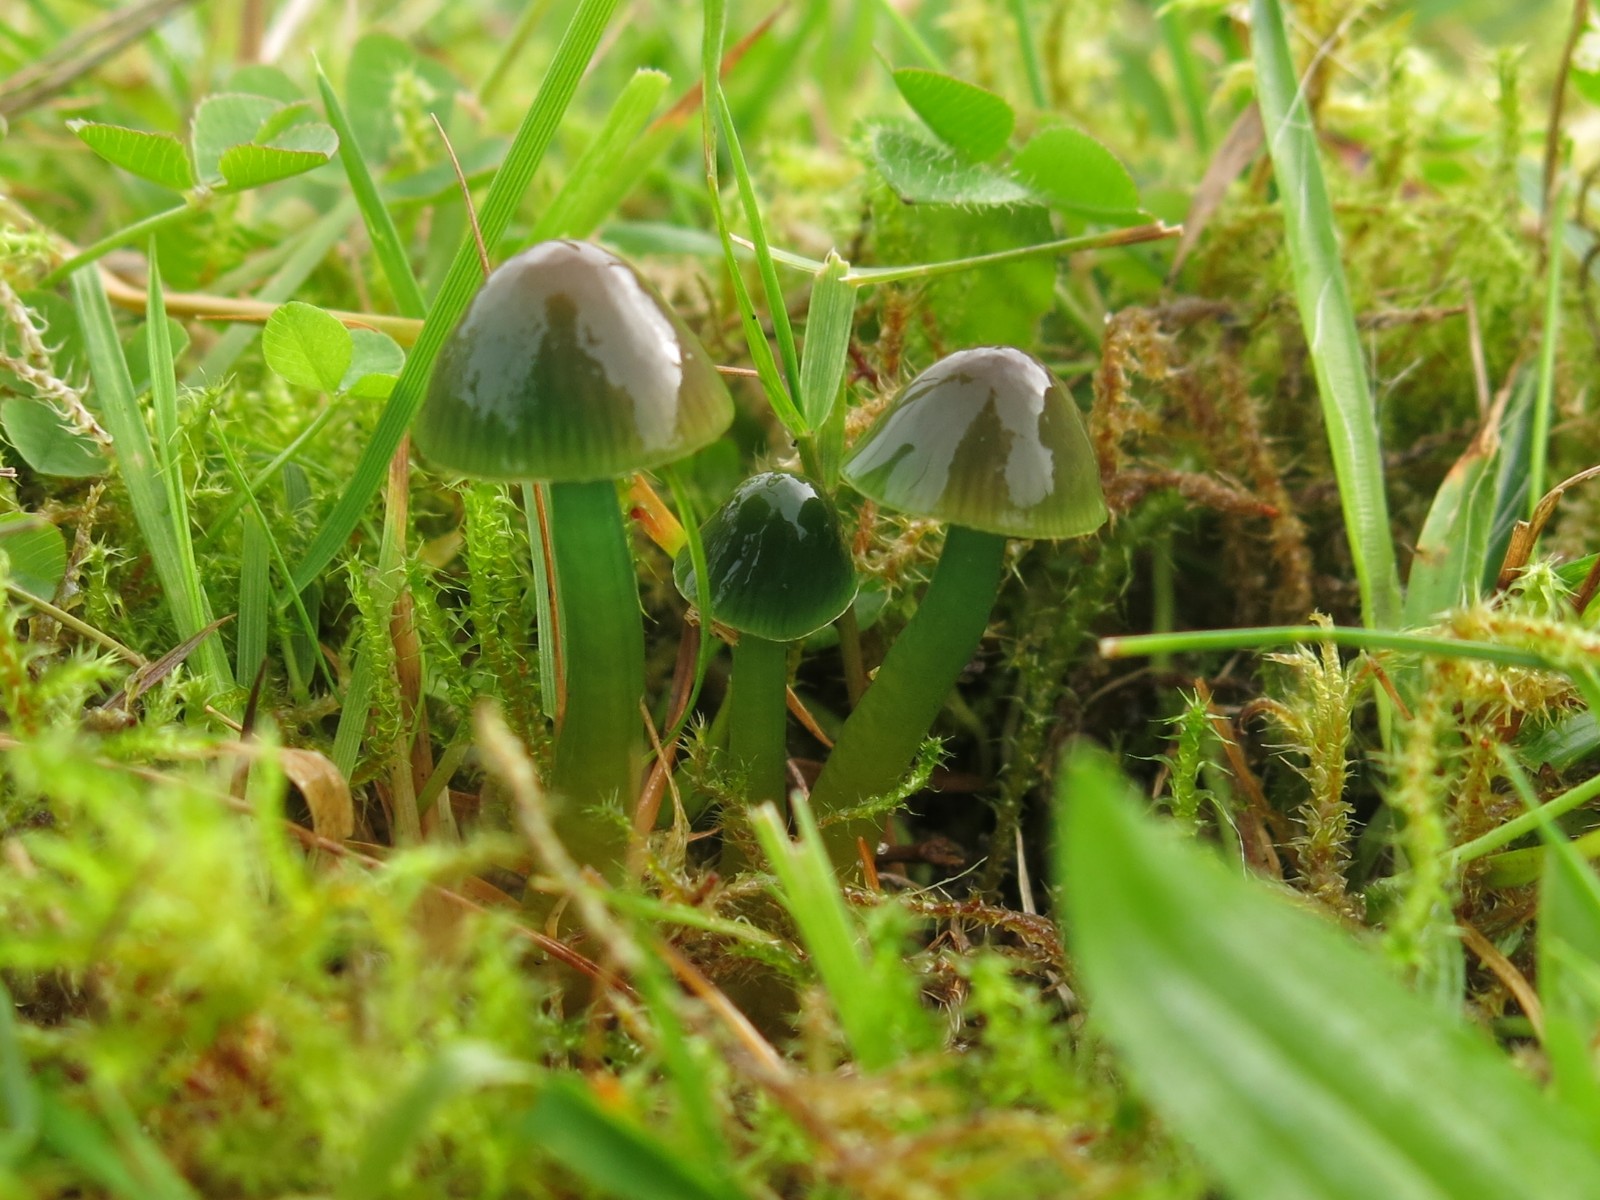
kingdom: Fungi
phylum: Basidiomycota
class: Agaricomycetes
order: Agaricales
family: Hygrophoraceae
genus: Gliophorus
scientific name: Gliophorus psittacinus
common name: papegøje-vokshat
